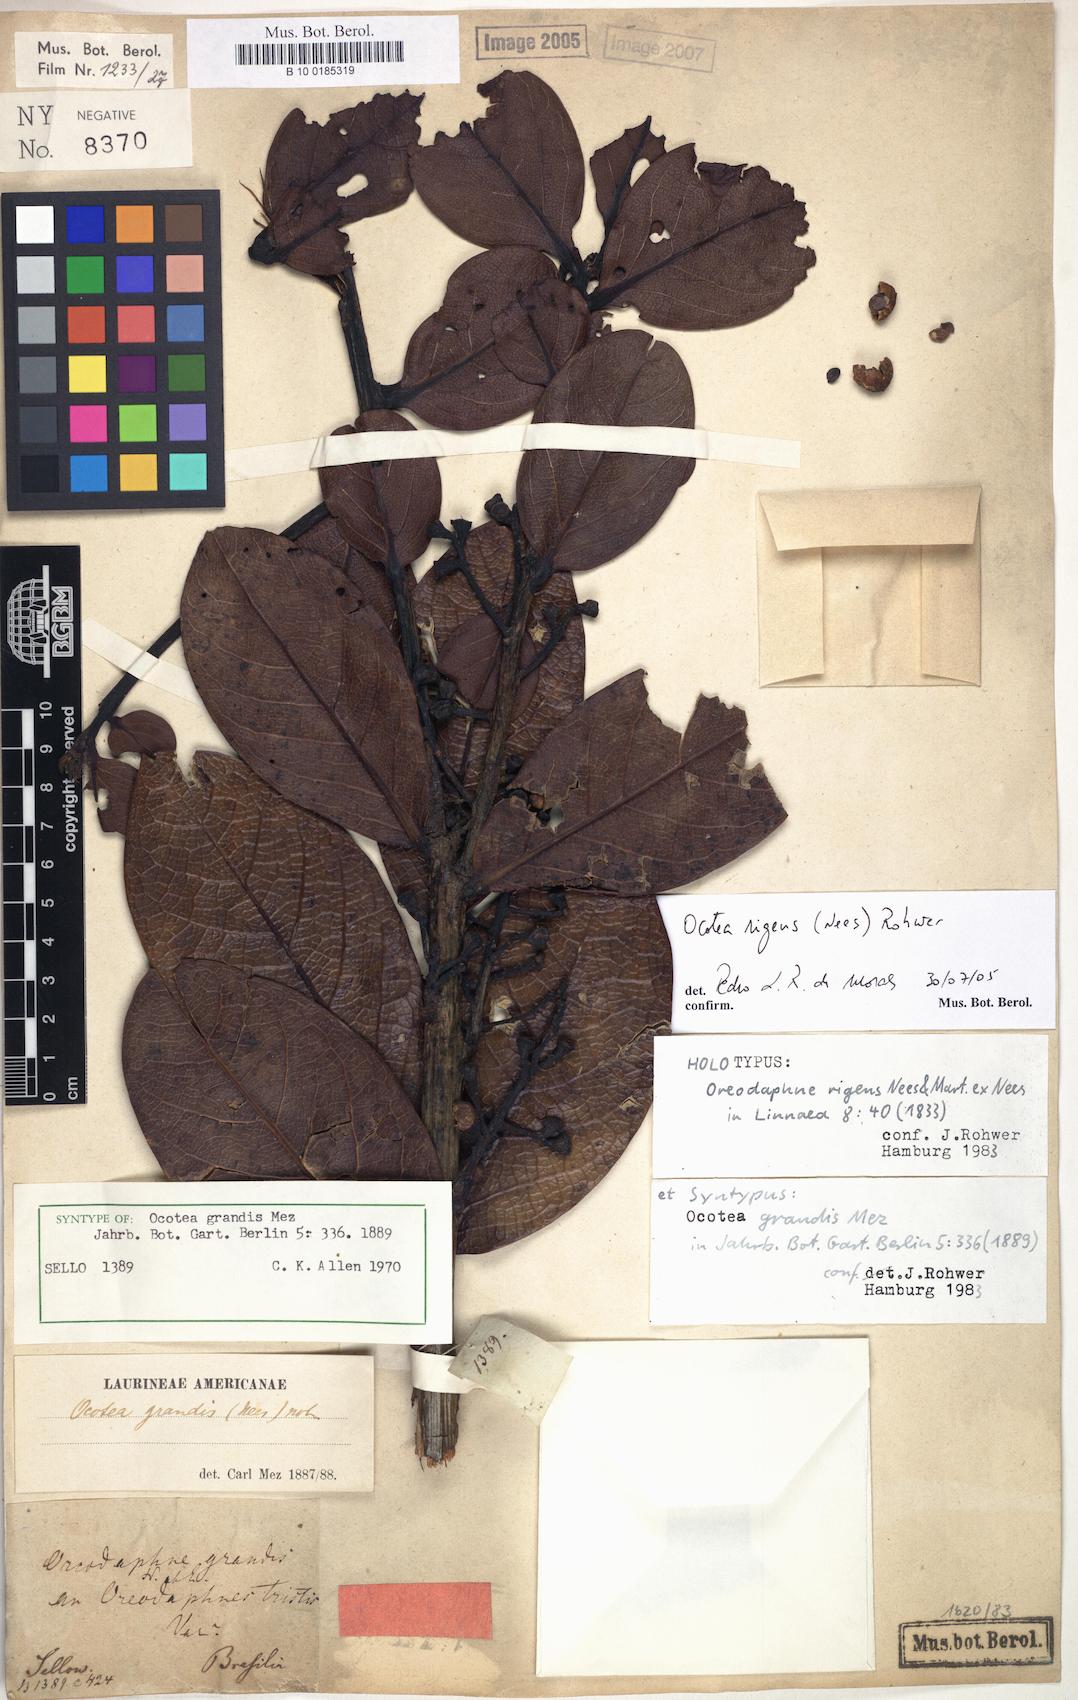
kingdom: Plantae
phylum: Tracheophyta
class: Magnoliopsida
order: Laurales
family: Lauraceae
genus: Mespilodaphne
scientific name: Mespilodaphne tristis
